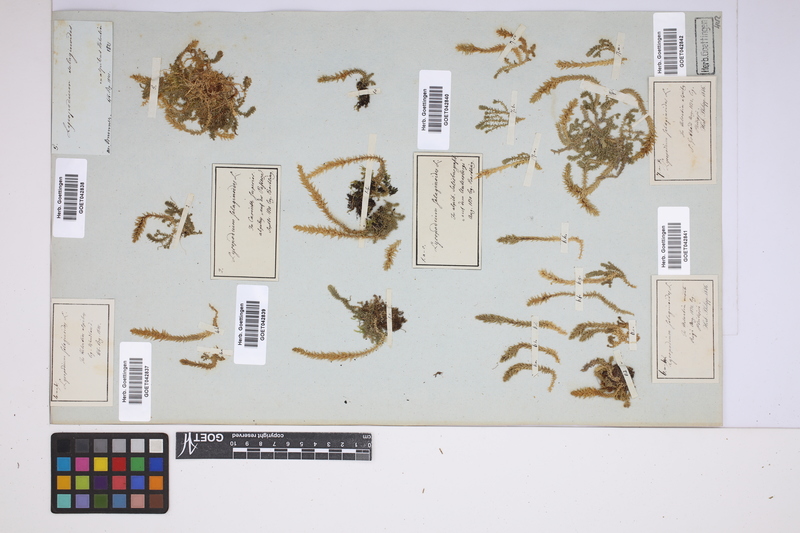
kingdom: Plantae
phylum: Tracheophyta
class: Lycopodiopsida
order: Selaginellales
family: Selaginellaceae
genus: Selaginella
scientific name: Selaginella selaginoides
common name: Prickly mountain-moss
